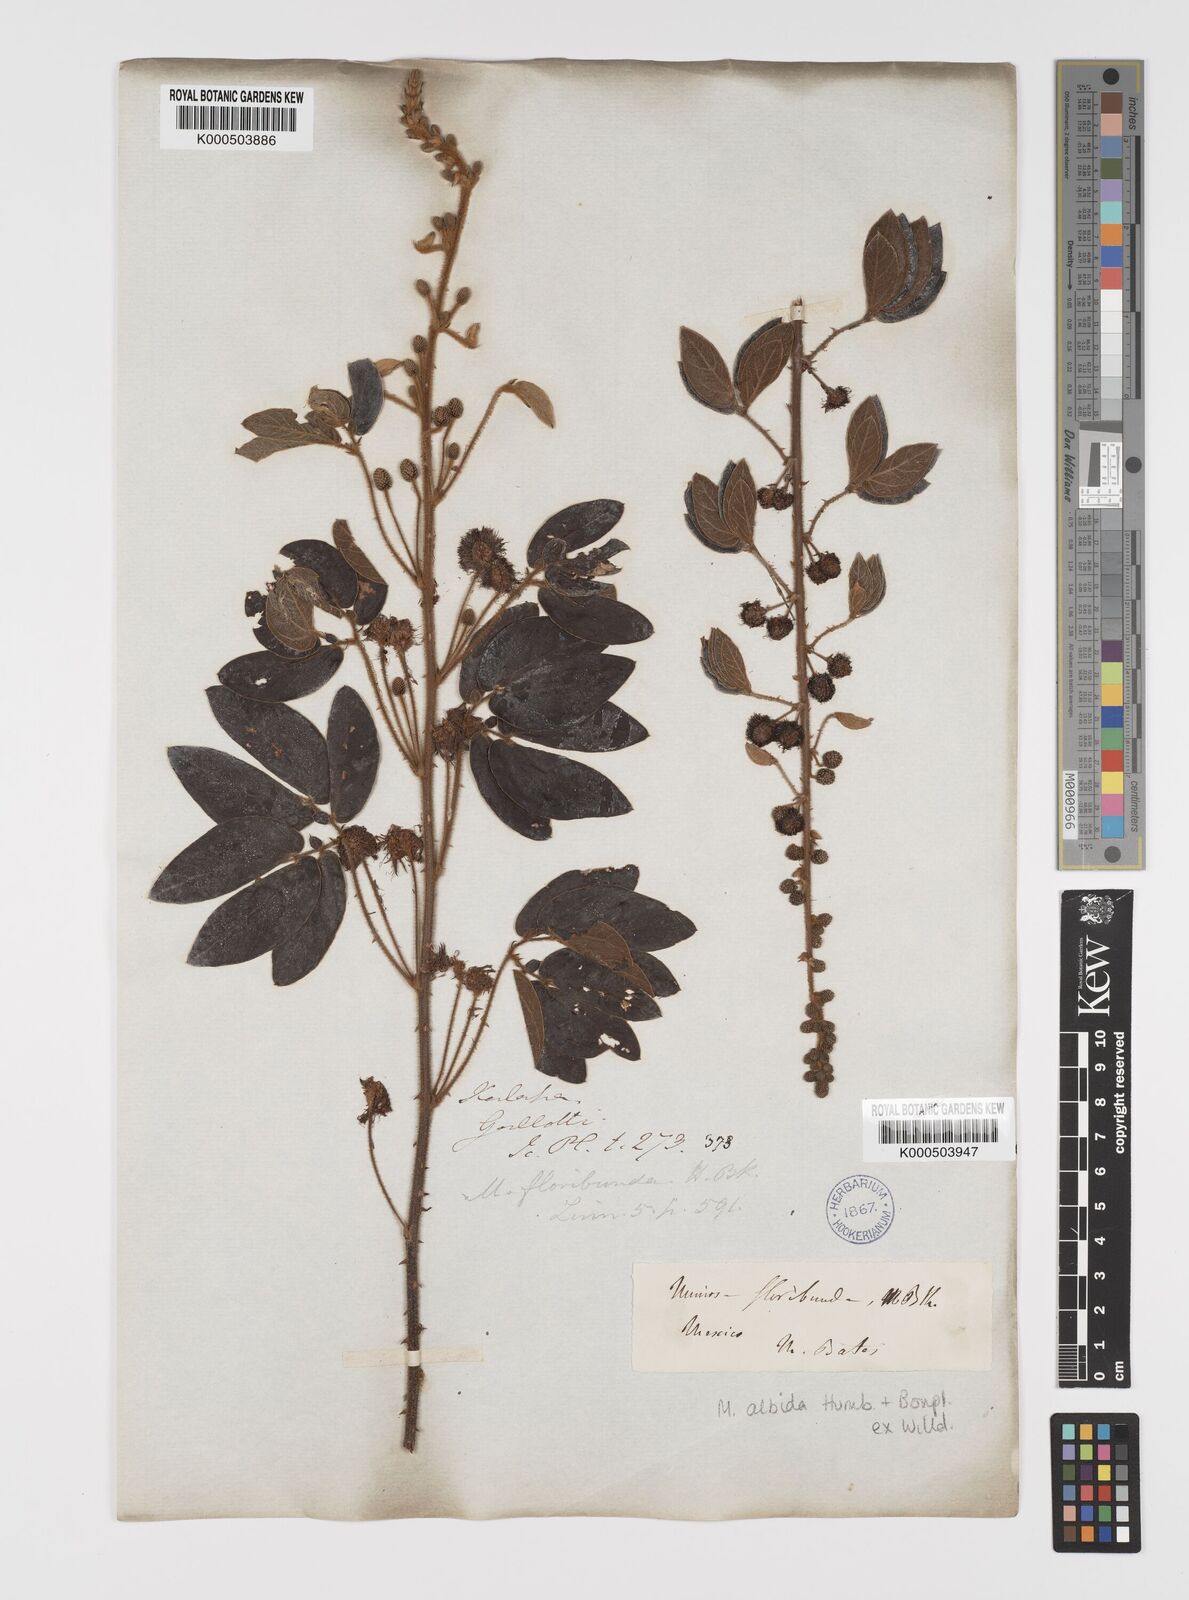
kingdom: Plantae
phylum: Tracheophyta
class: Magnoliopsida
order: Fabales
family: Fabaceae
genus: Mimosa
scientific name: Mimosa albida
